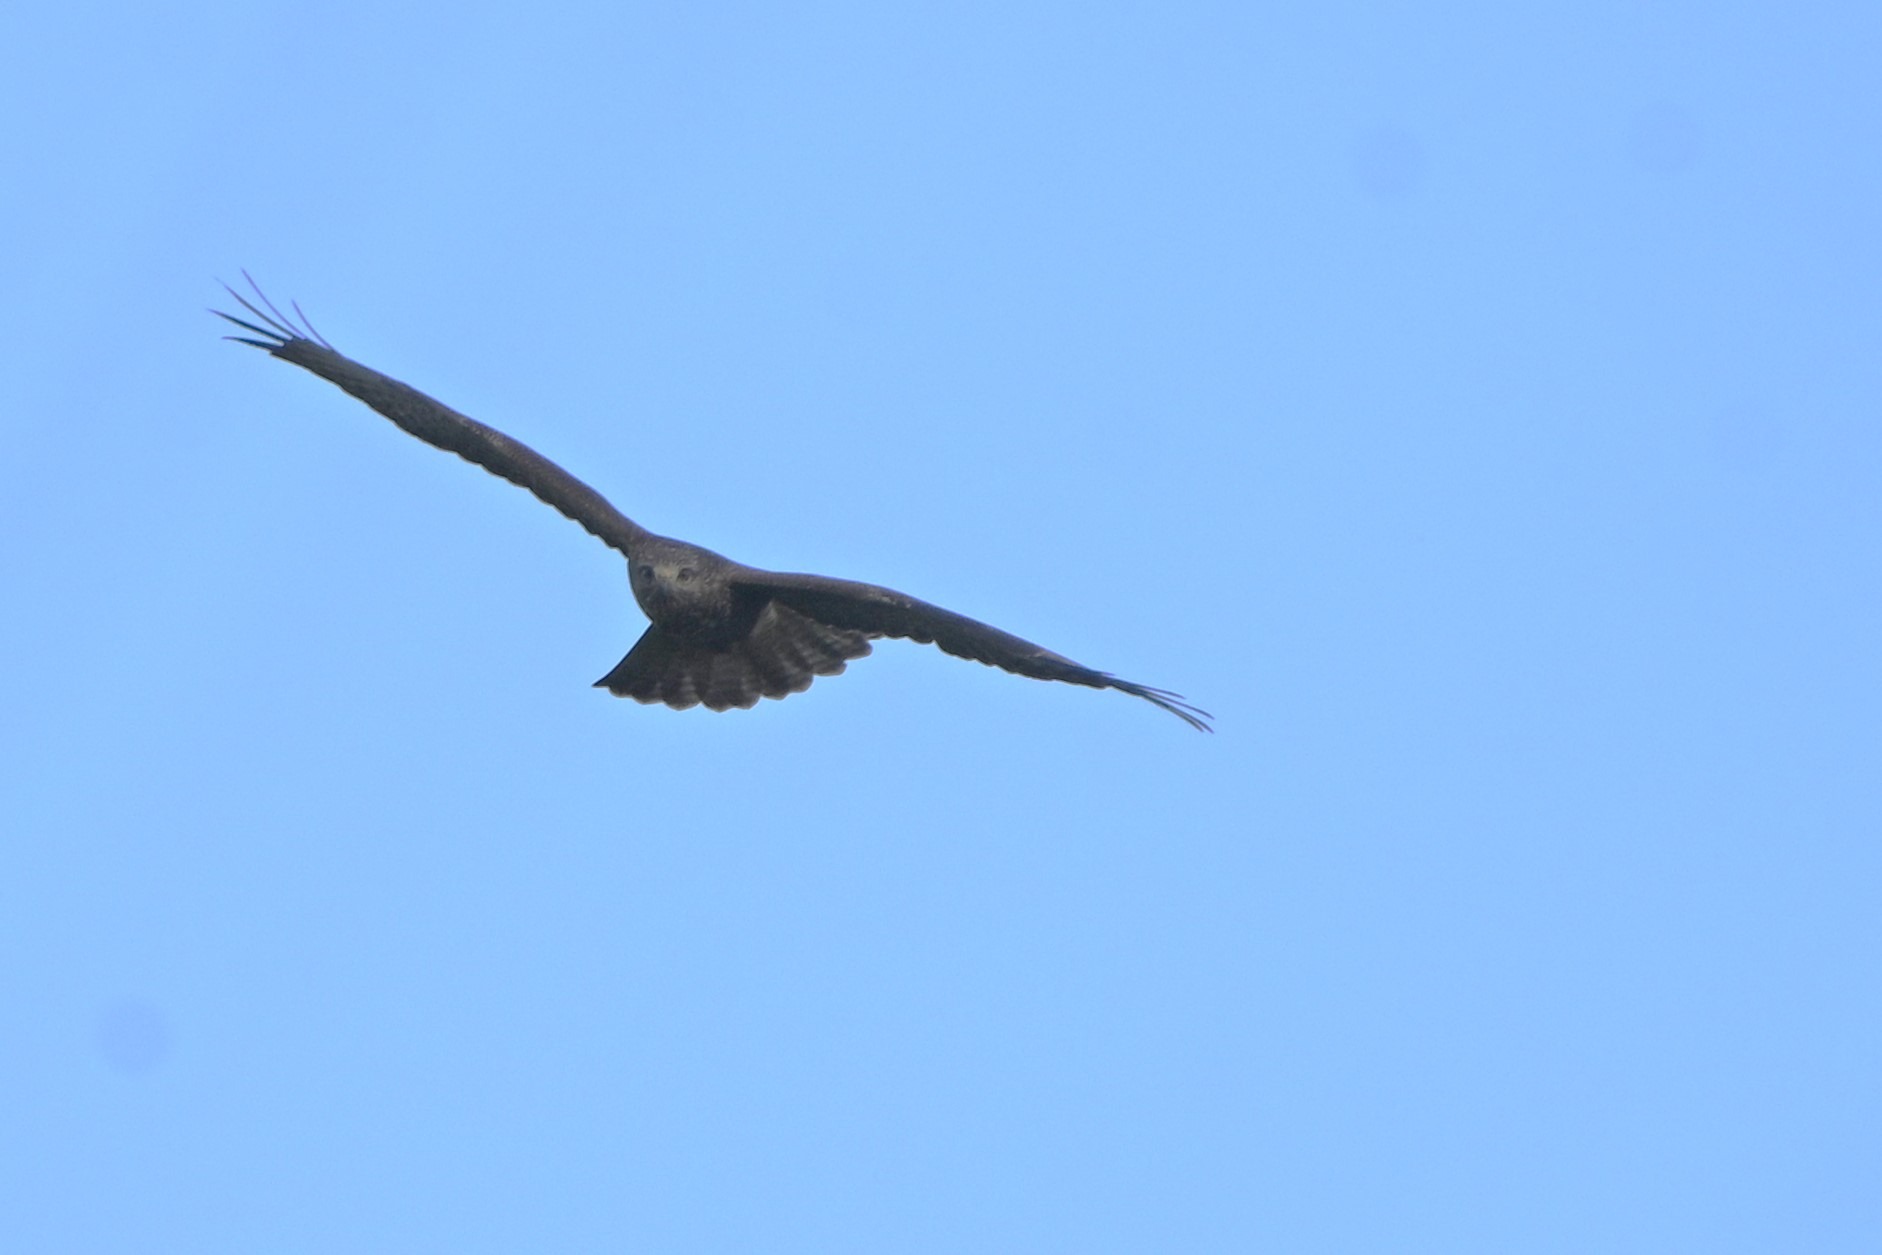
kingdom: Animalia
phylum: Chordata
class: Aves
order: Accipitriformes
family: Accipitridae
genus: Buteo
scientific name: Buteo buteo
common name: Musvåge
